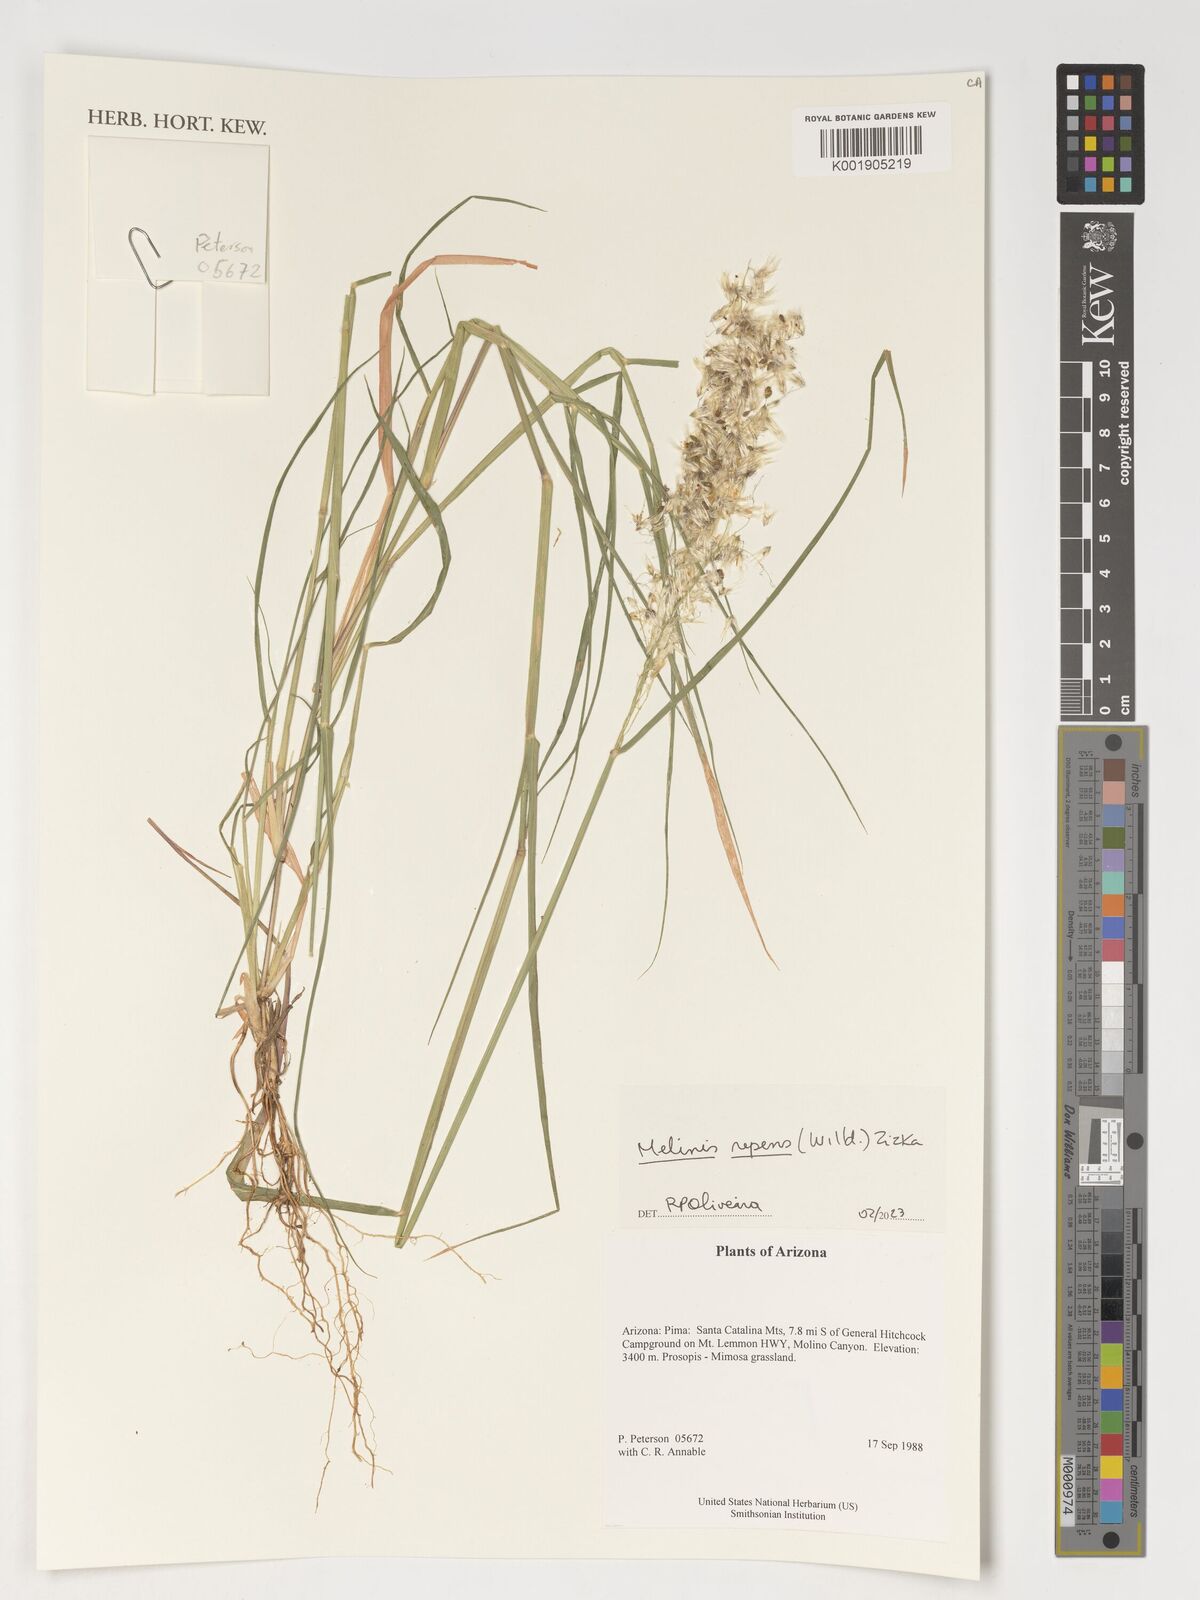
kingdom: Plantae
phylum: Tracheophyta
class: Liliopsida
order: Poales
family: Poaceae
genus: Melinis
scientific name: Melinis repens
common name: Rose natal grass
